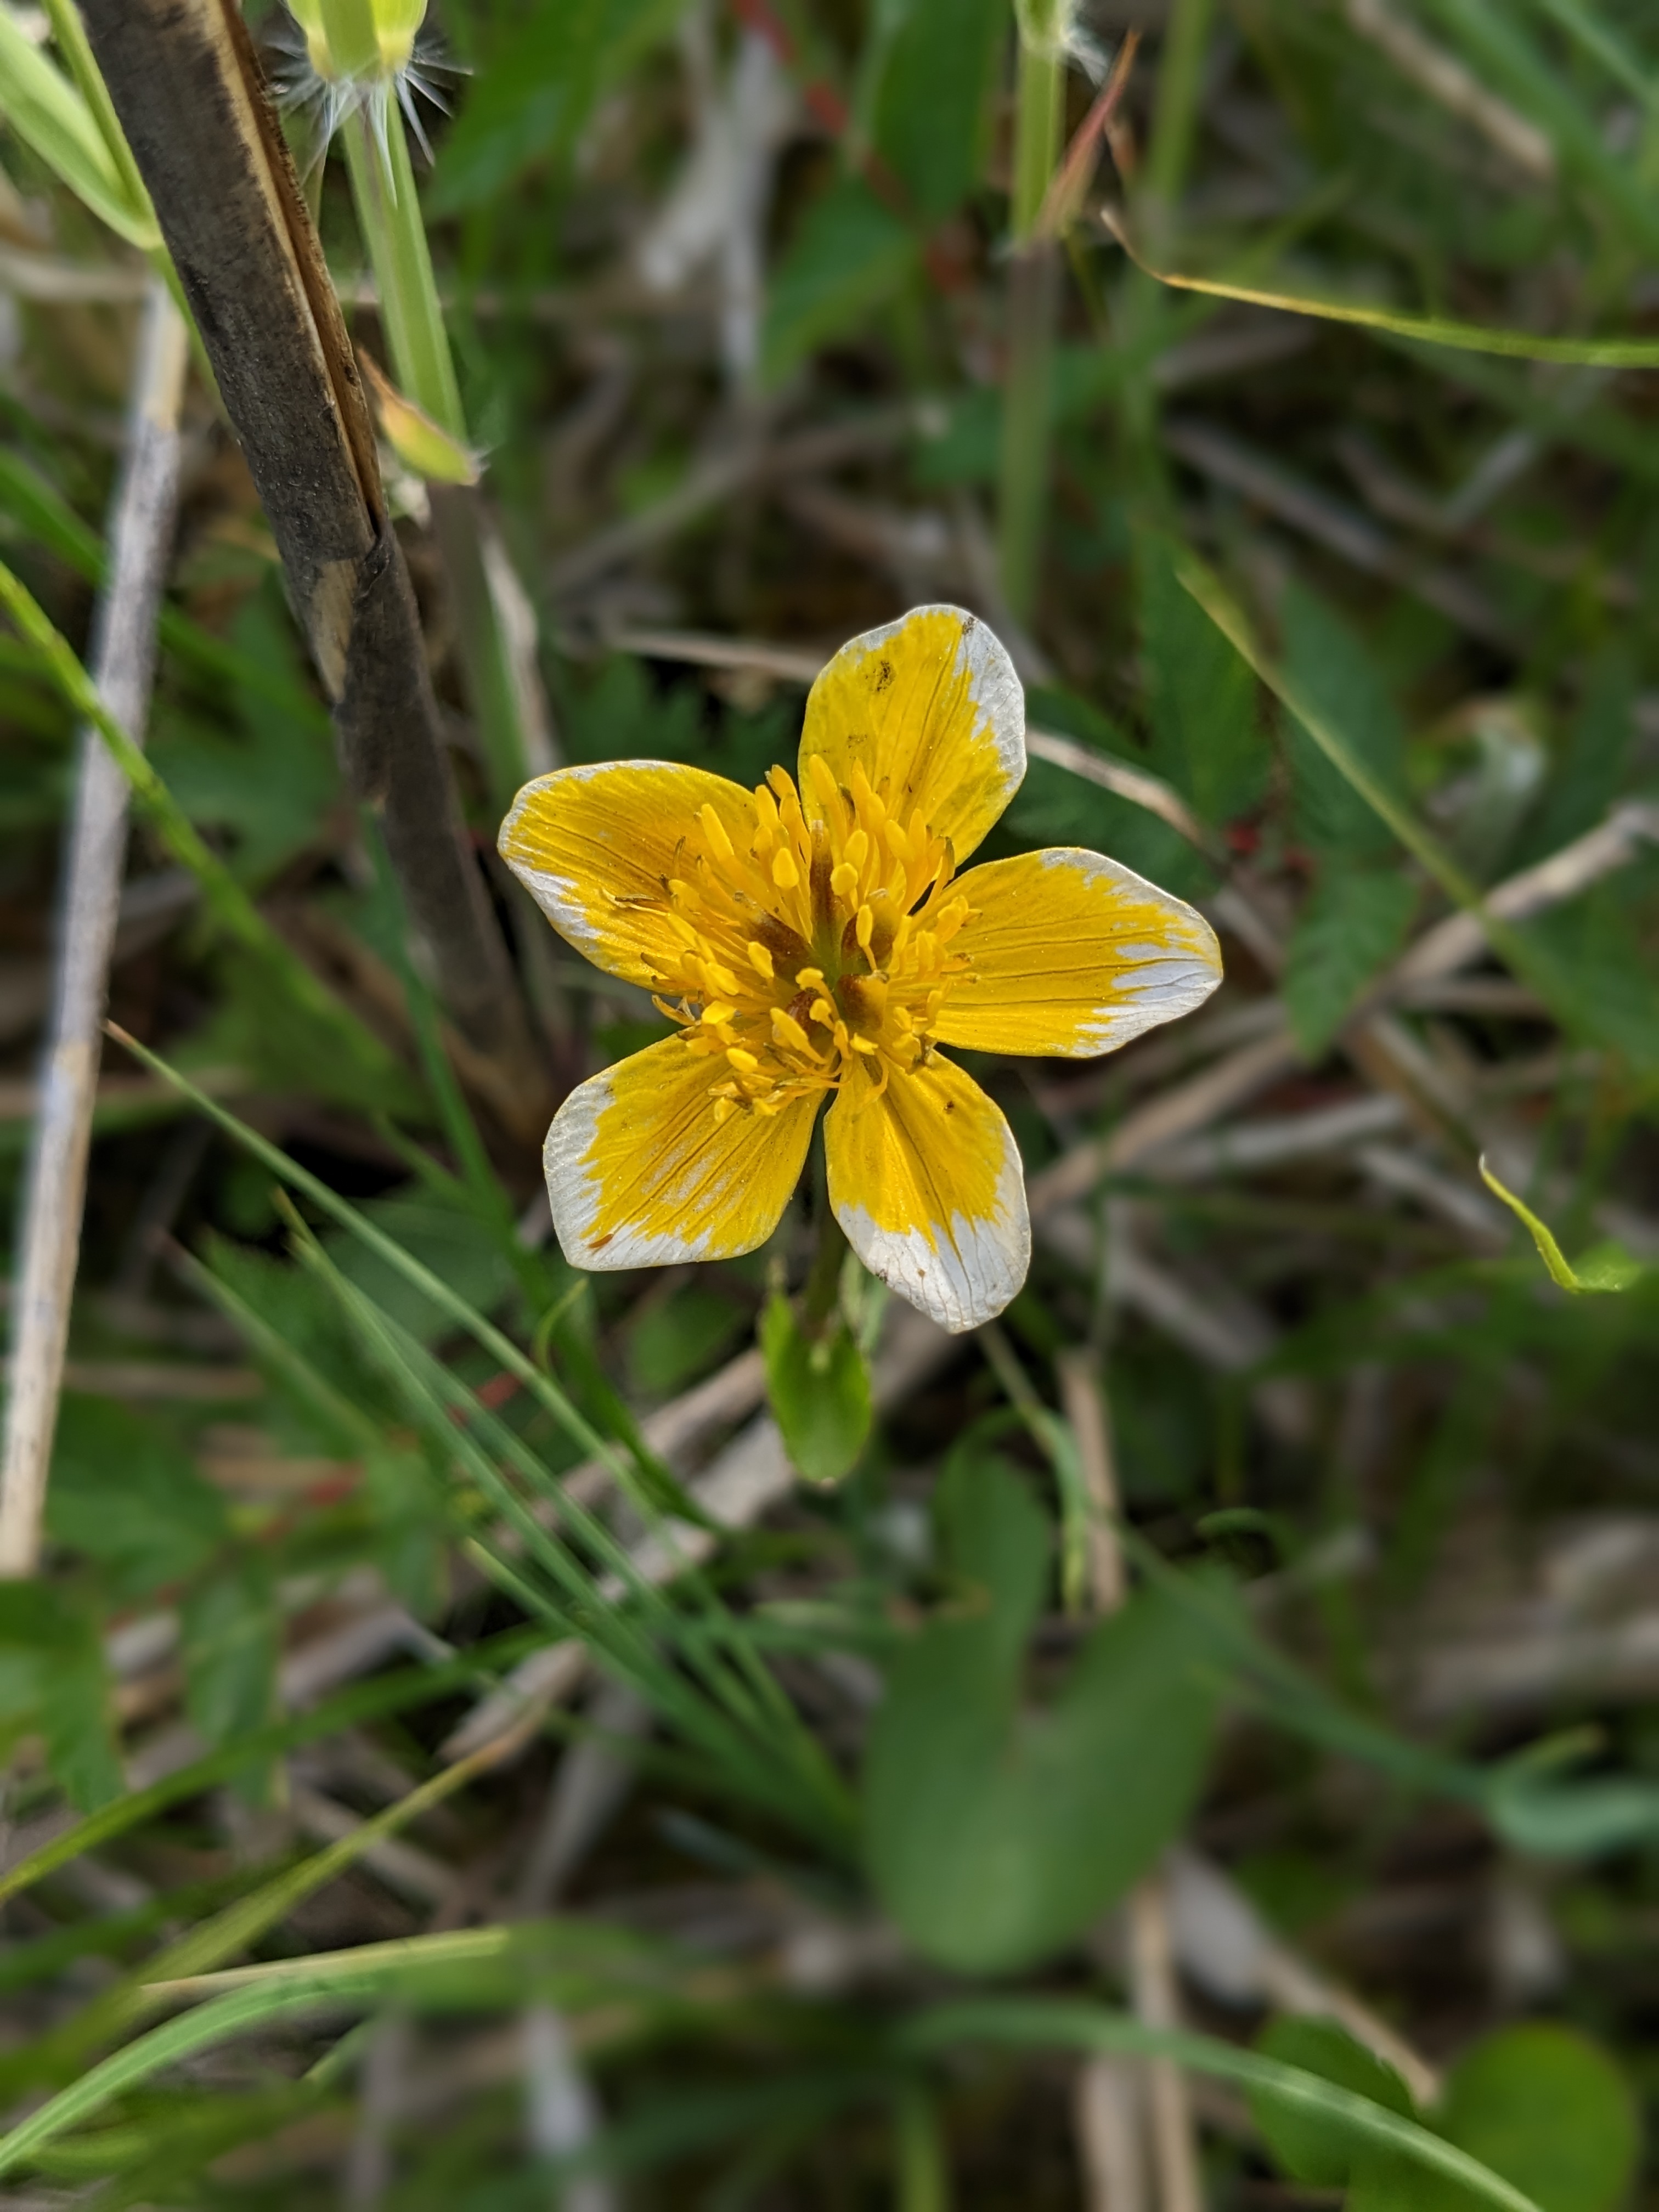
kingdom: Plantae
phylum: Tracheophyta
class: Magnoliopsida
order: Ranunculales
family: Ranunculaceae
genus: Caltha
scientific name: Caltha palustris
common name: Eng-kabbeleje
